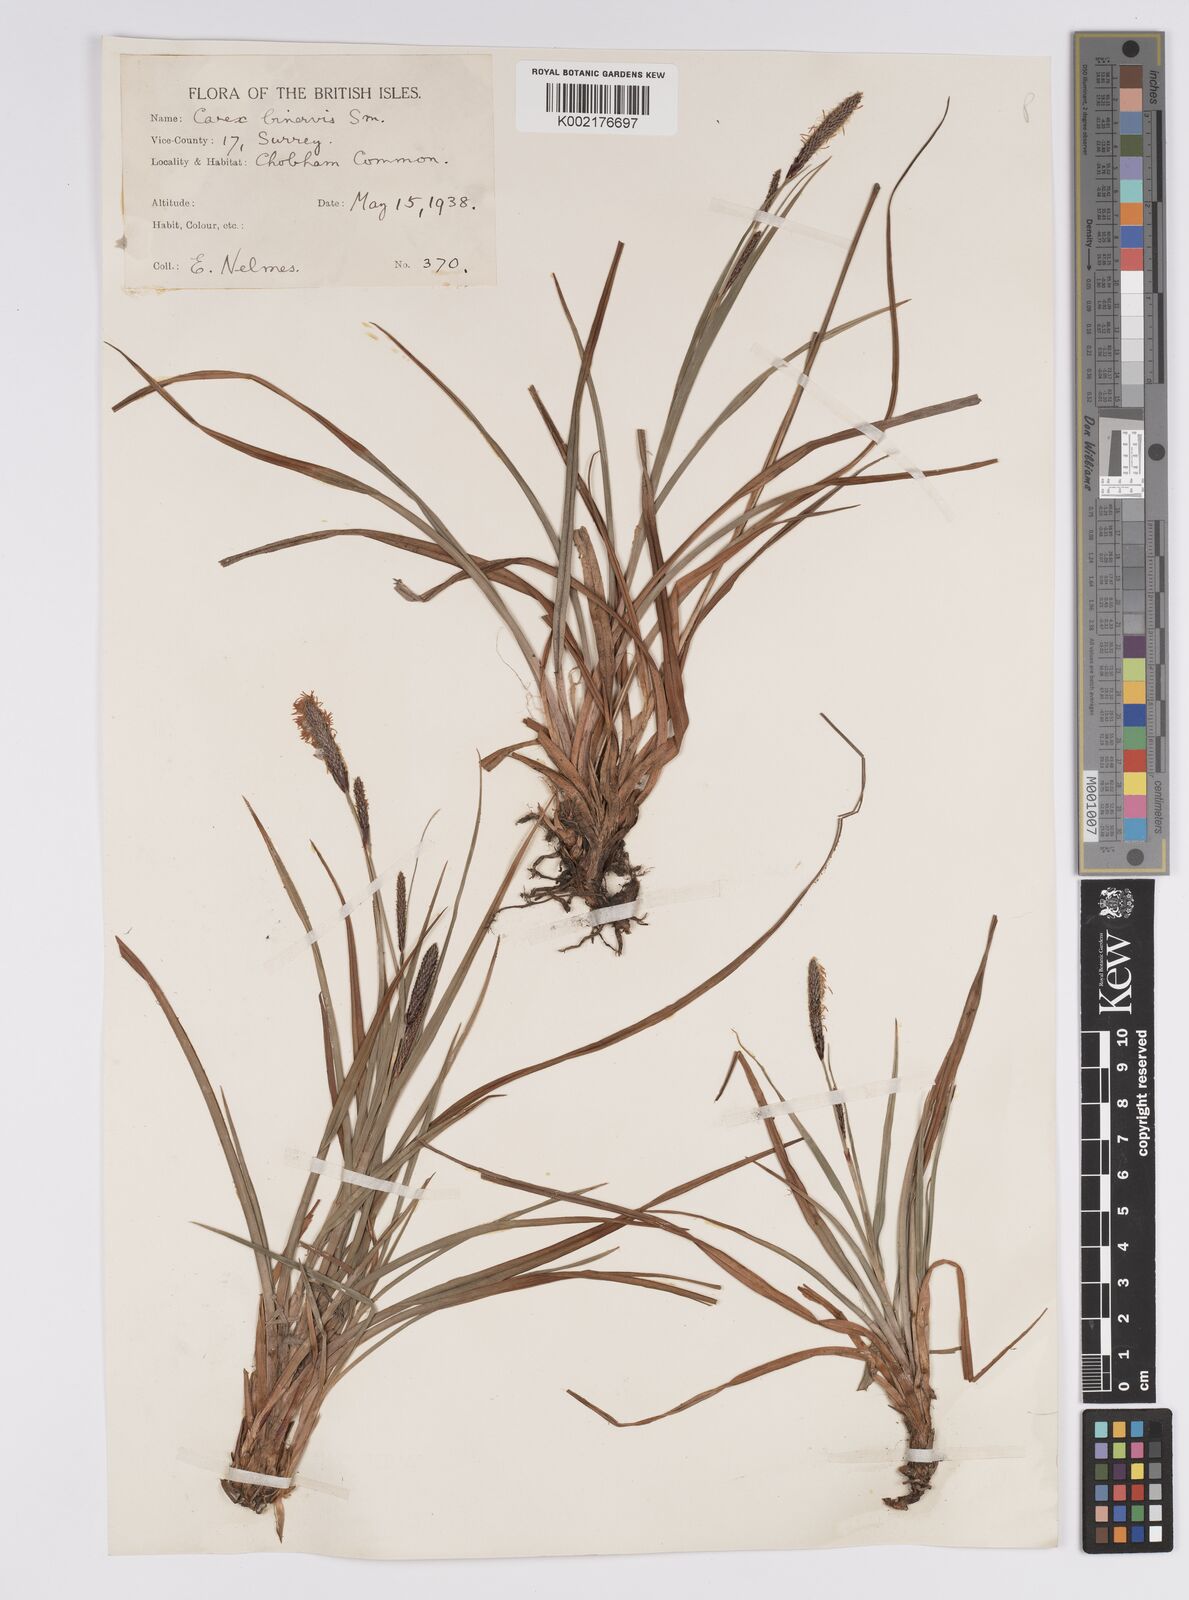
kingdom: Plantae
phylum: Tracheophyta
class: Liliopsida
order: Poales
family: Cyperaceae
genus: Carex
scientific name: Carex binervis
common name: Green-ribbed sedge
